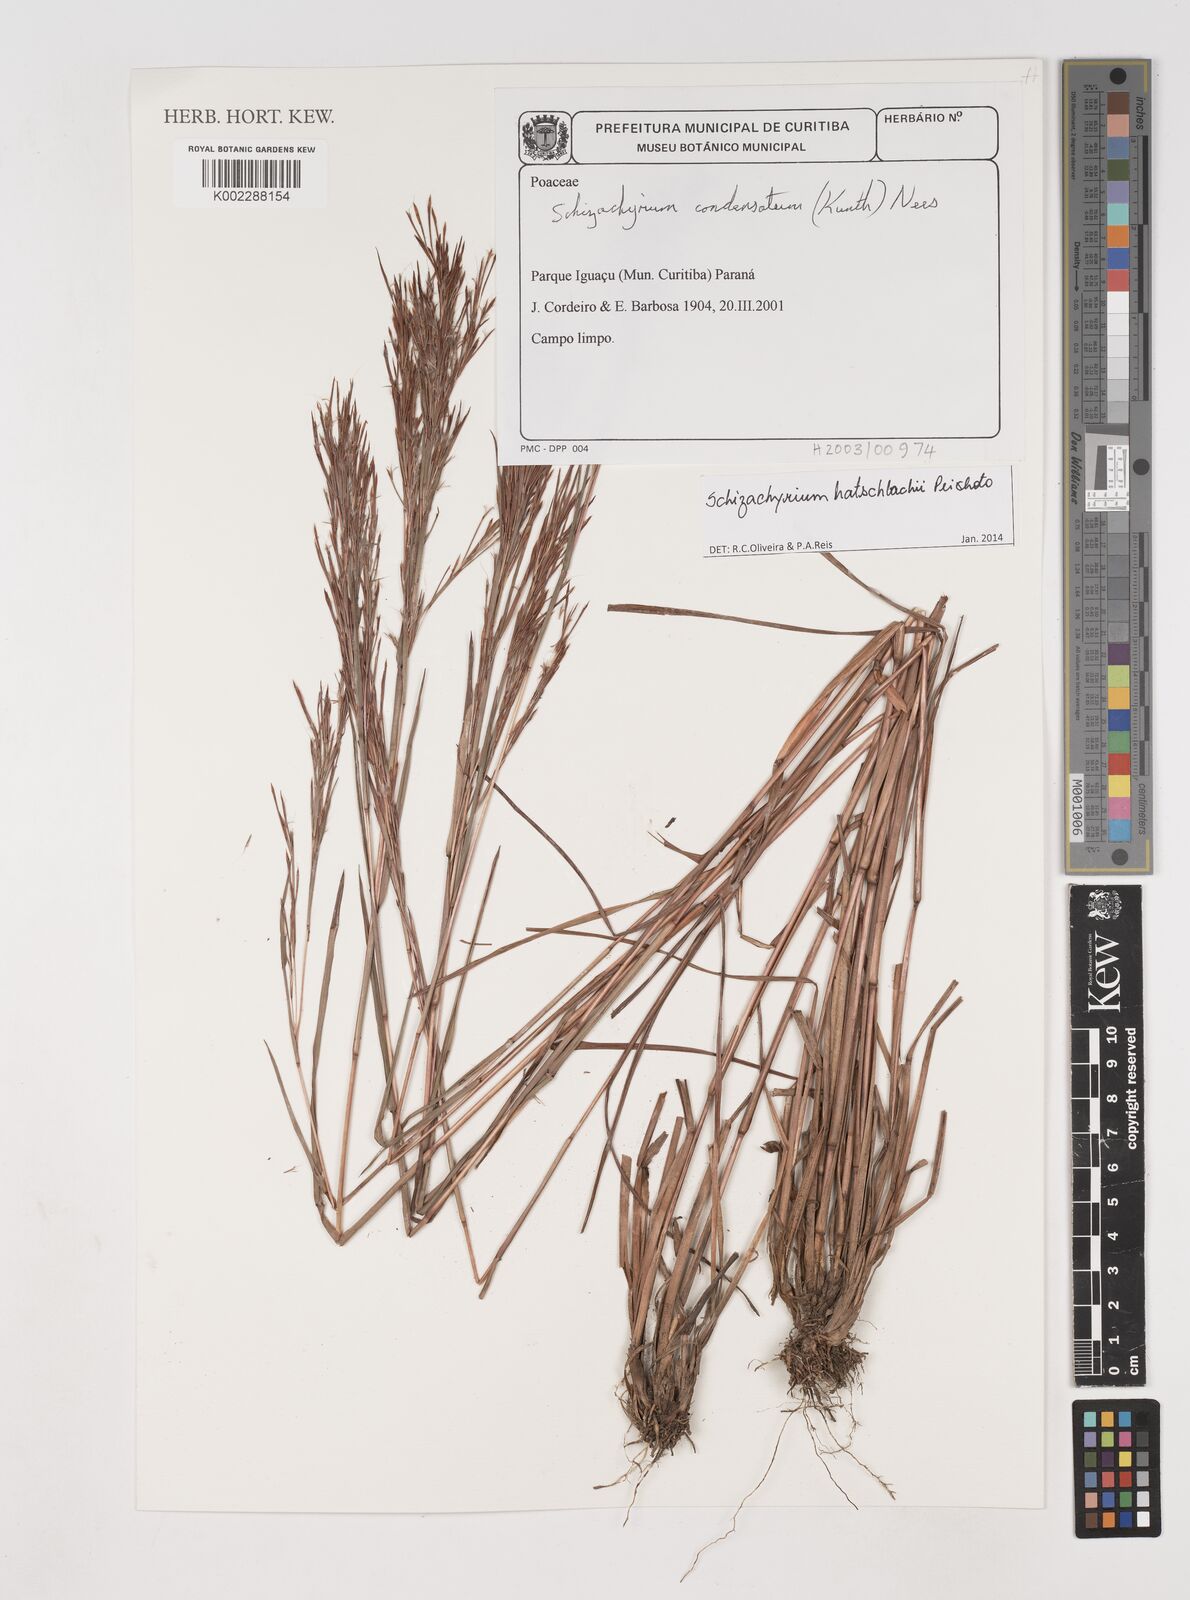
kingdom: Plantae
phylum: Tracheophyta
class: Liliopsida
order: Poales
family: Poaceae
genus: Schizachyrium
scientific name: Schizachyrium hatschbachii
